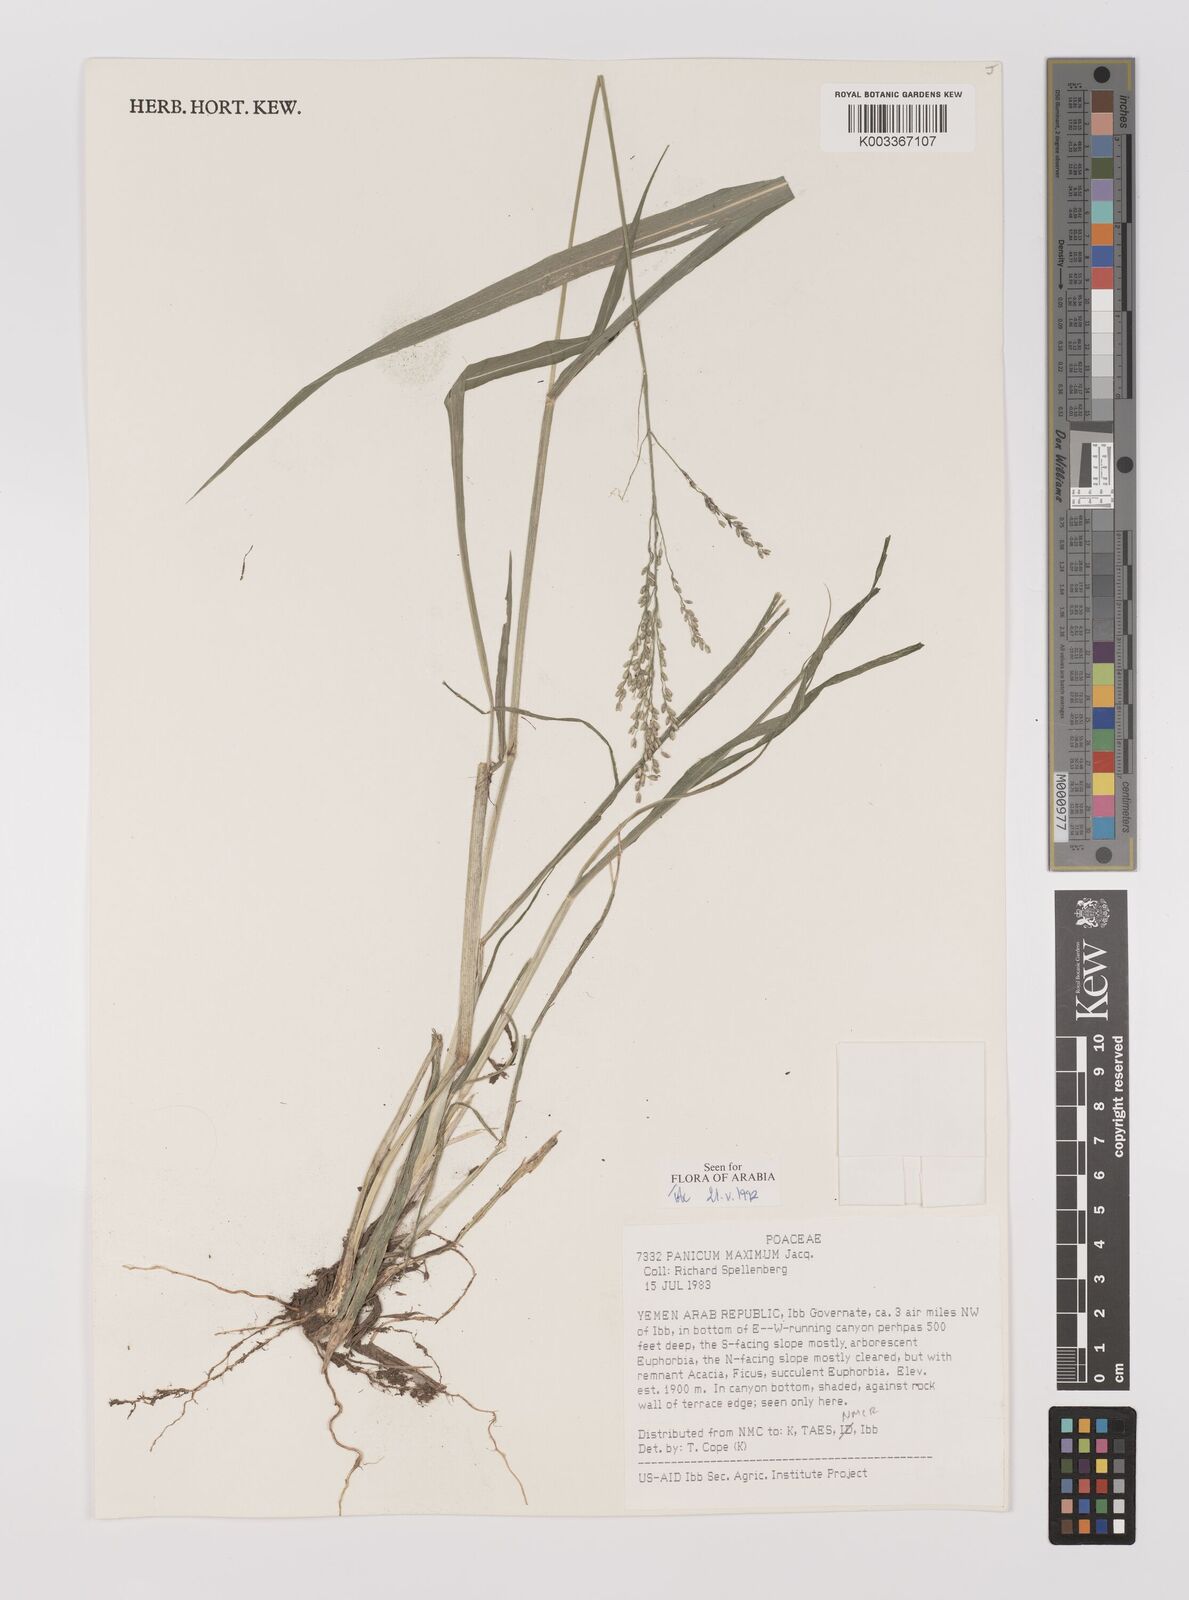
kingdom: Plantae
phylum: Tracheophyta
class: Liliopsida
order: Poales
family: Poaceae
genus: Megathyrsus
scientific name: Megathyrsus maximus
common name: Guineagrass
